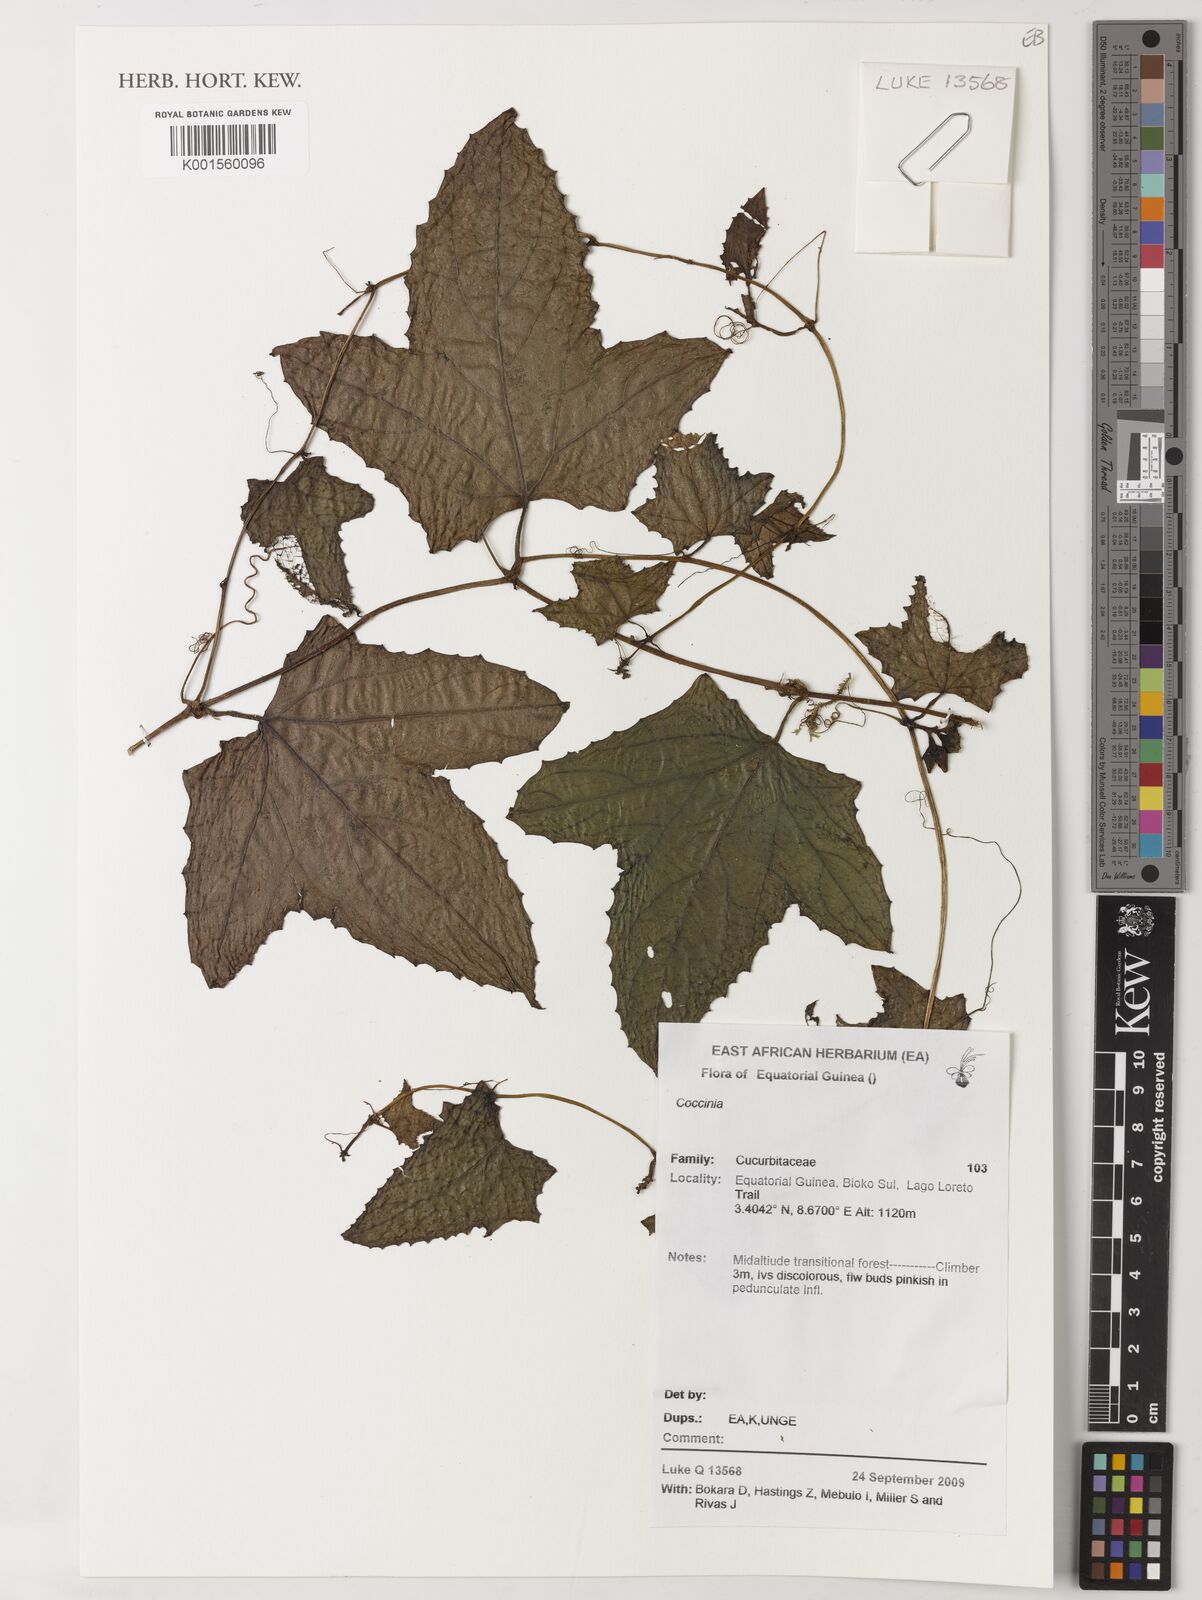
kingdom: Plantae
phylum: Tracheophyta
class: Magnoliopsida
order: Cucurbitales
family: Cucurbitaceae
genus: Coccinia
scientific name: Coccinia
